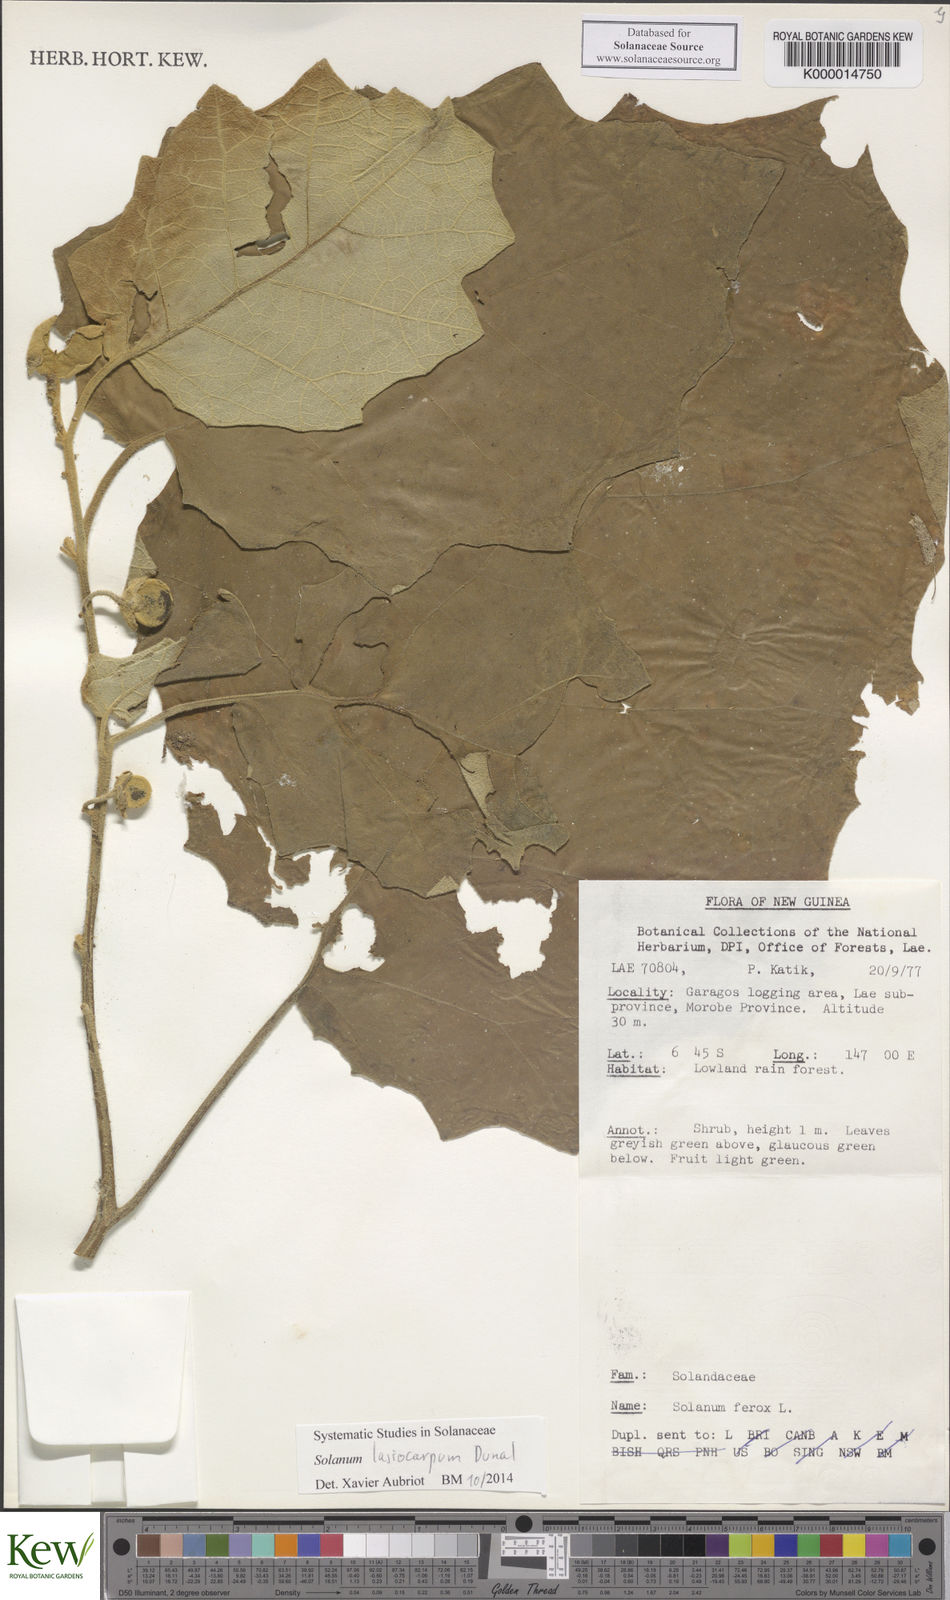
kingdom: Plantae
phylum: Tracheophyta
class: Magnoliopsida
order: Solanales
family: Solanaceae
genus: Solanum
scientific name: Solanum lasiocarpum
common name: Indian nightshade
